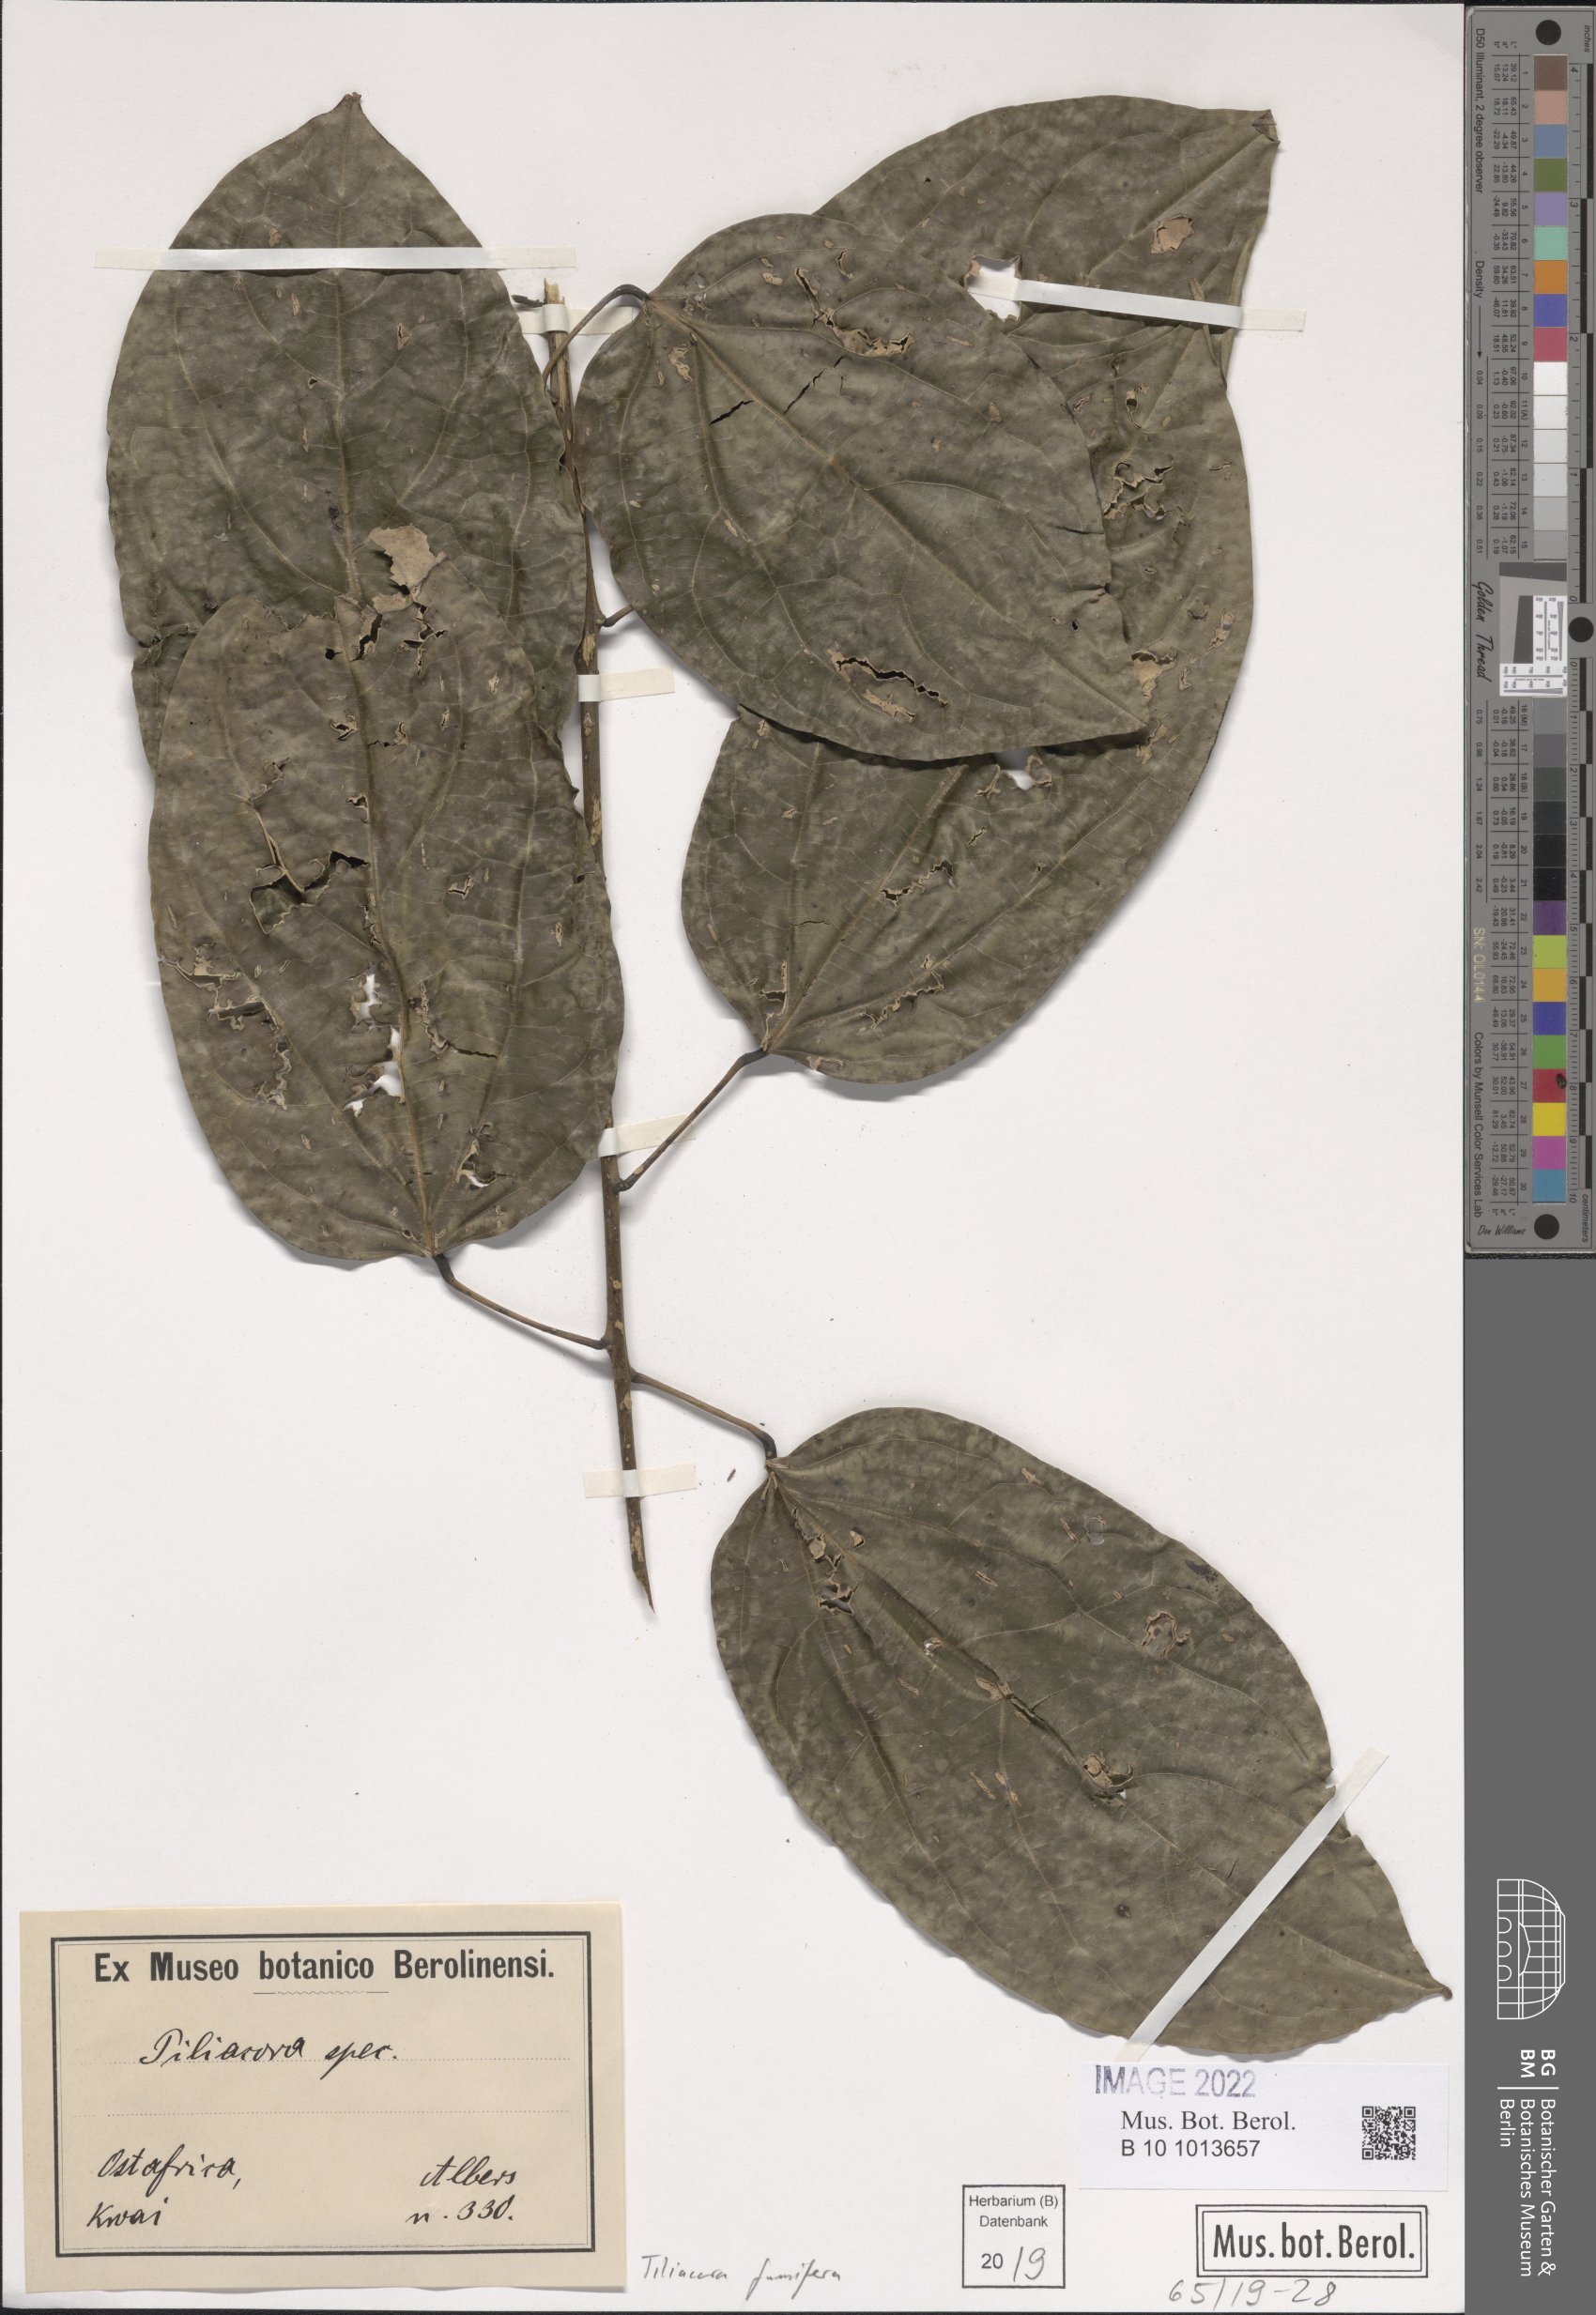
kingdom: Plantae
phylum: Tracheophyta
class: Magnoliopsida
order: Ranunculales
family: Menispermaceae
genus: Tiliacora
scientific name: Tiliacora funifera
